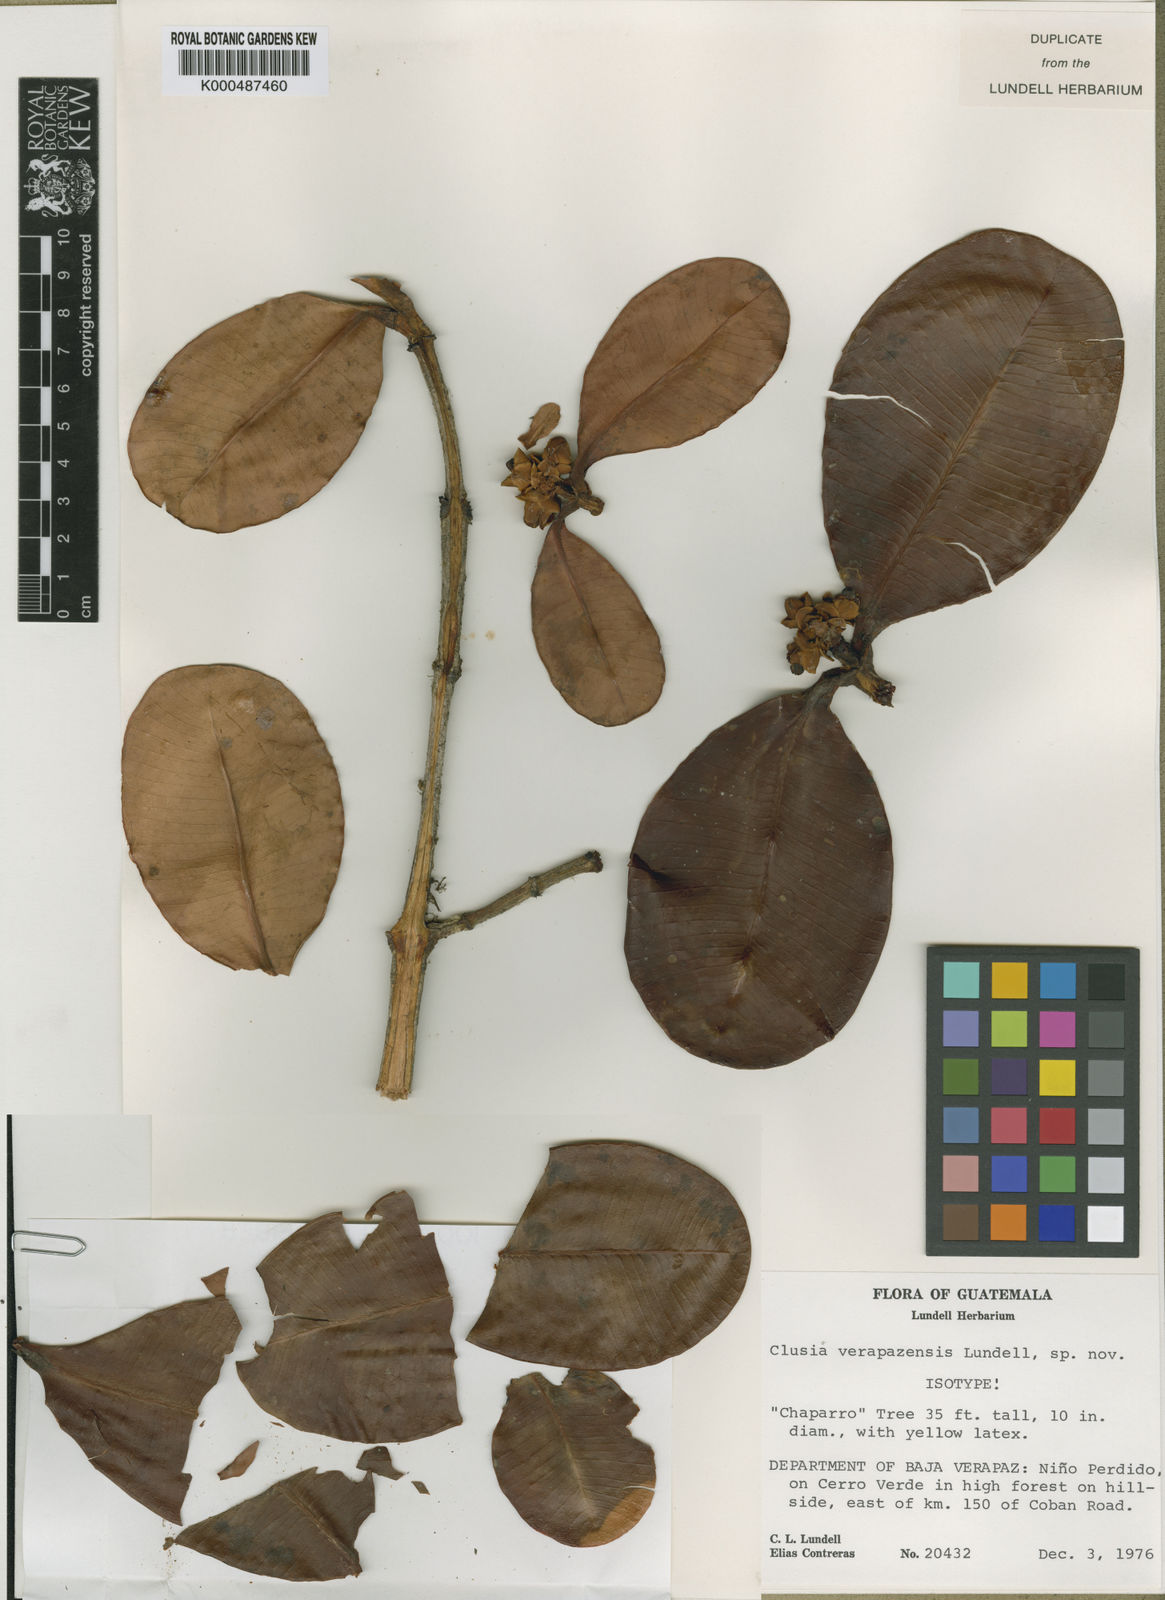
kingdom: Plantae
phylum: Tracheophyta
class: Magnoliopsida
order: Malpighiales
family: Clusiaceae
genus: Clusia
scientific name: Clusia salvinii
